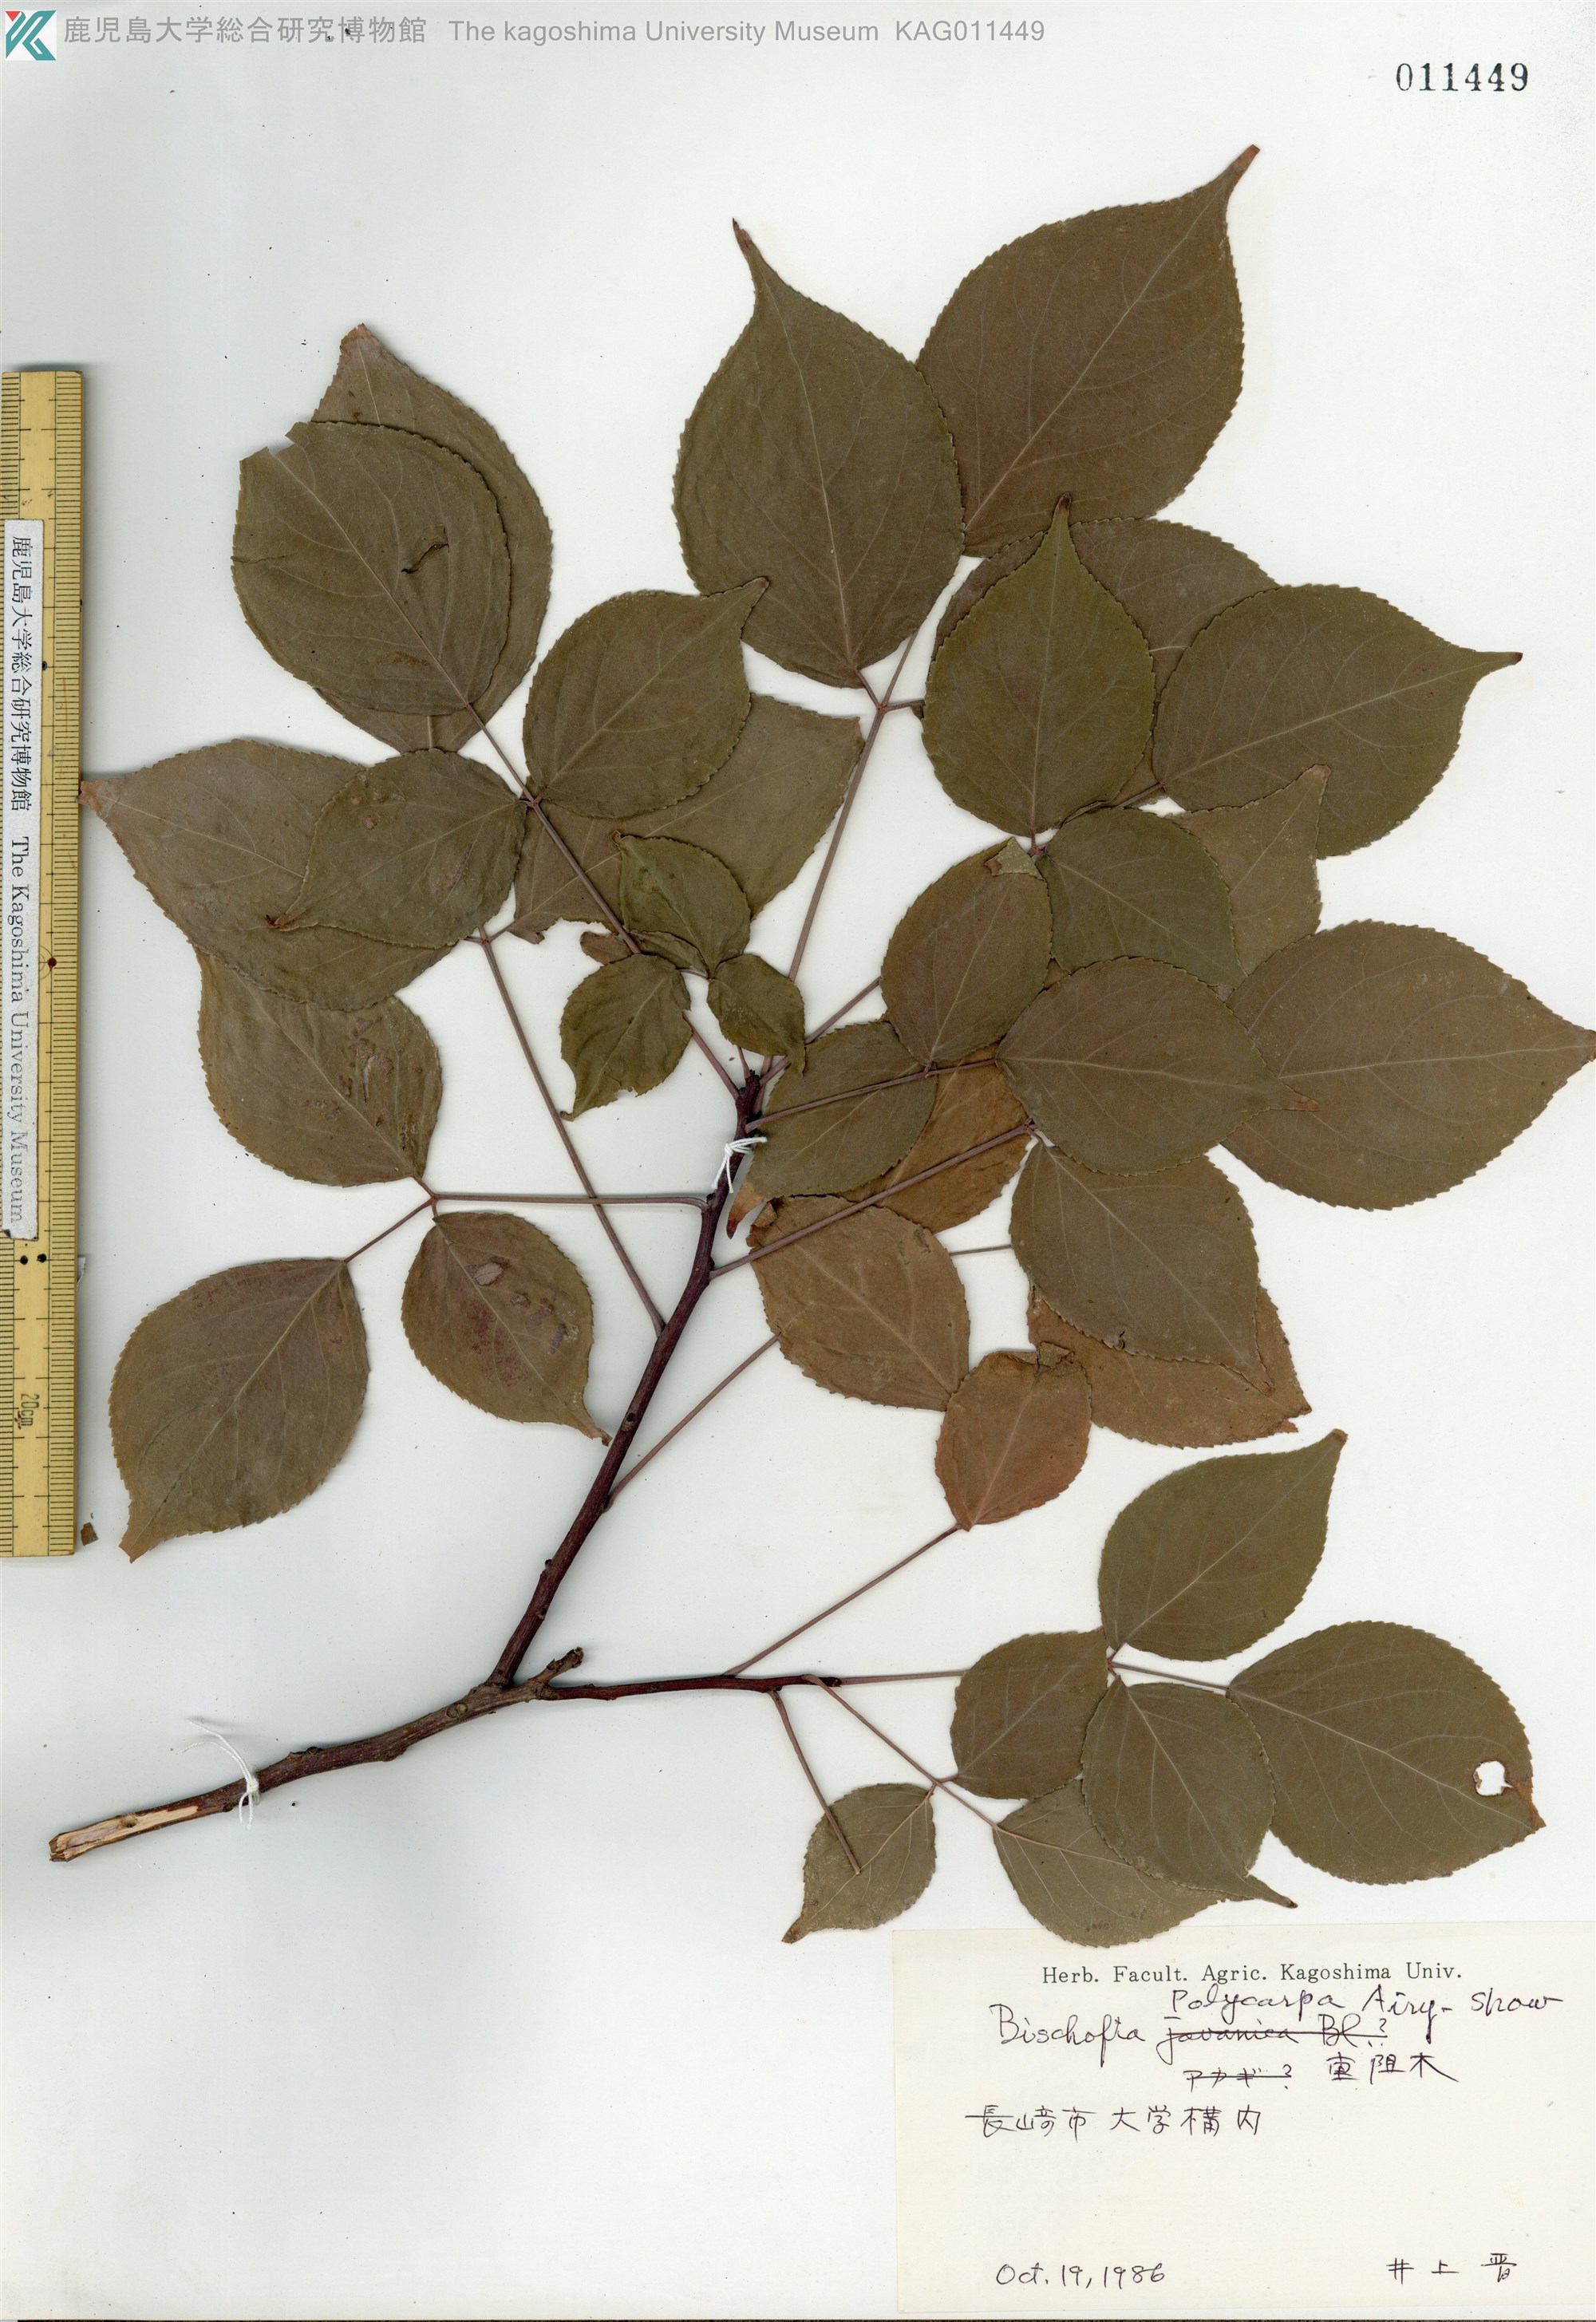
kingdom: Plantae
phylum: Tracheophyta
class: Magnoliopsida
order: Malpighiales
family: Phyllanthaceae
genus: Bischofia
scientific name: Bischofia polycarpa
